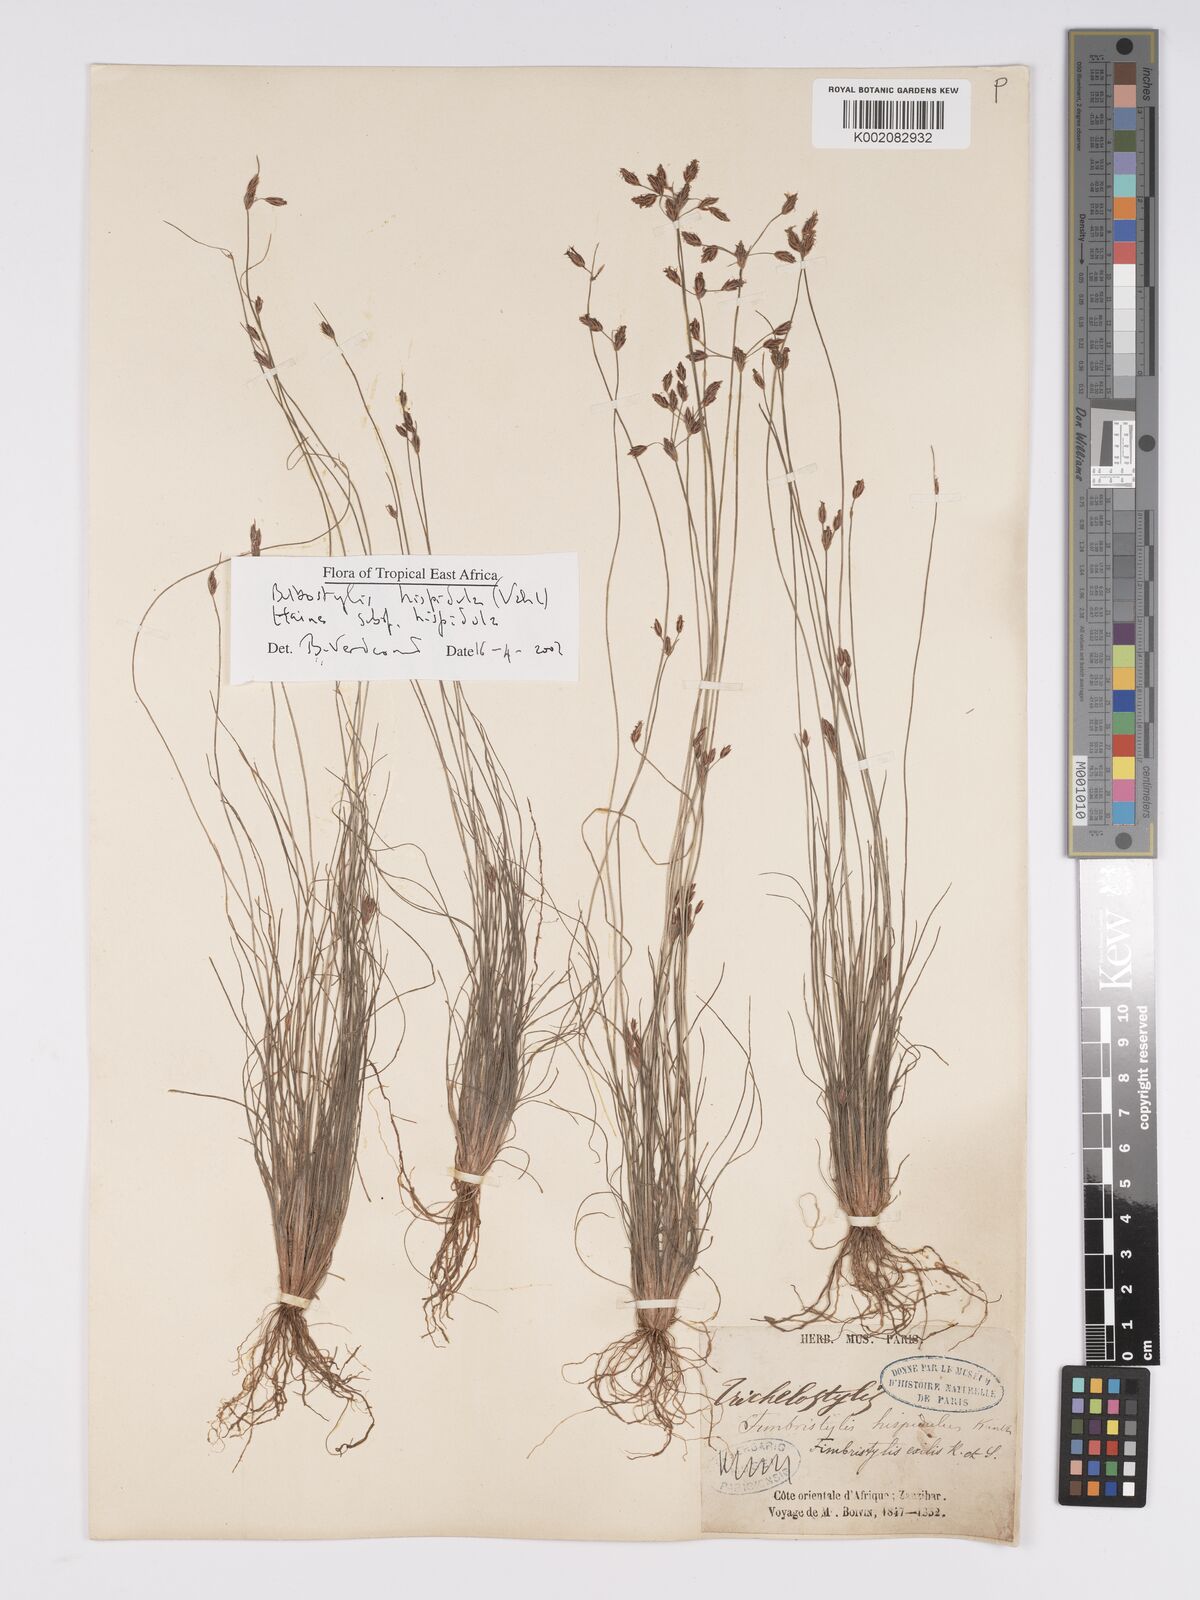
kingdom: Plantae
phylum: Tracheophyta
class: Liliopsida
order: Poales
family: Cyperaceae
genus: Bulbostylis
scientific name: Bulbostylis hispidula
